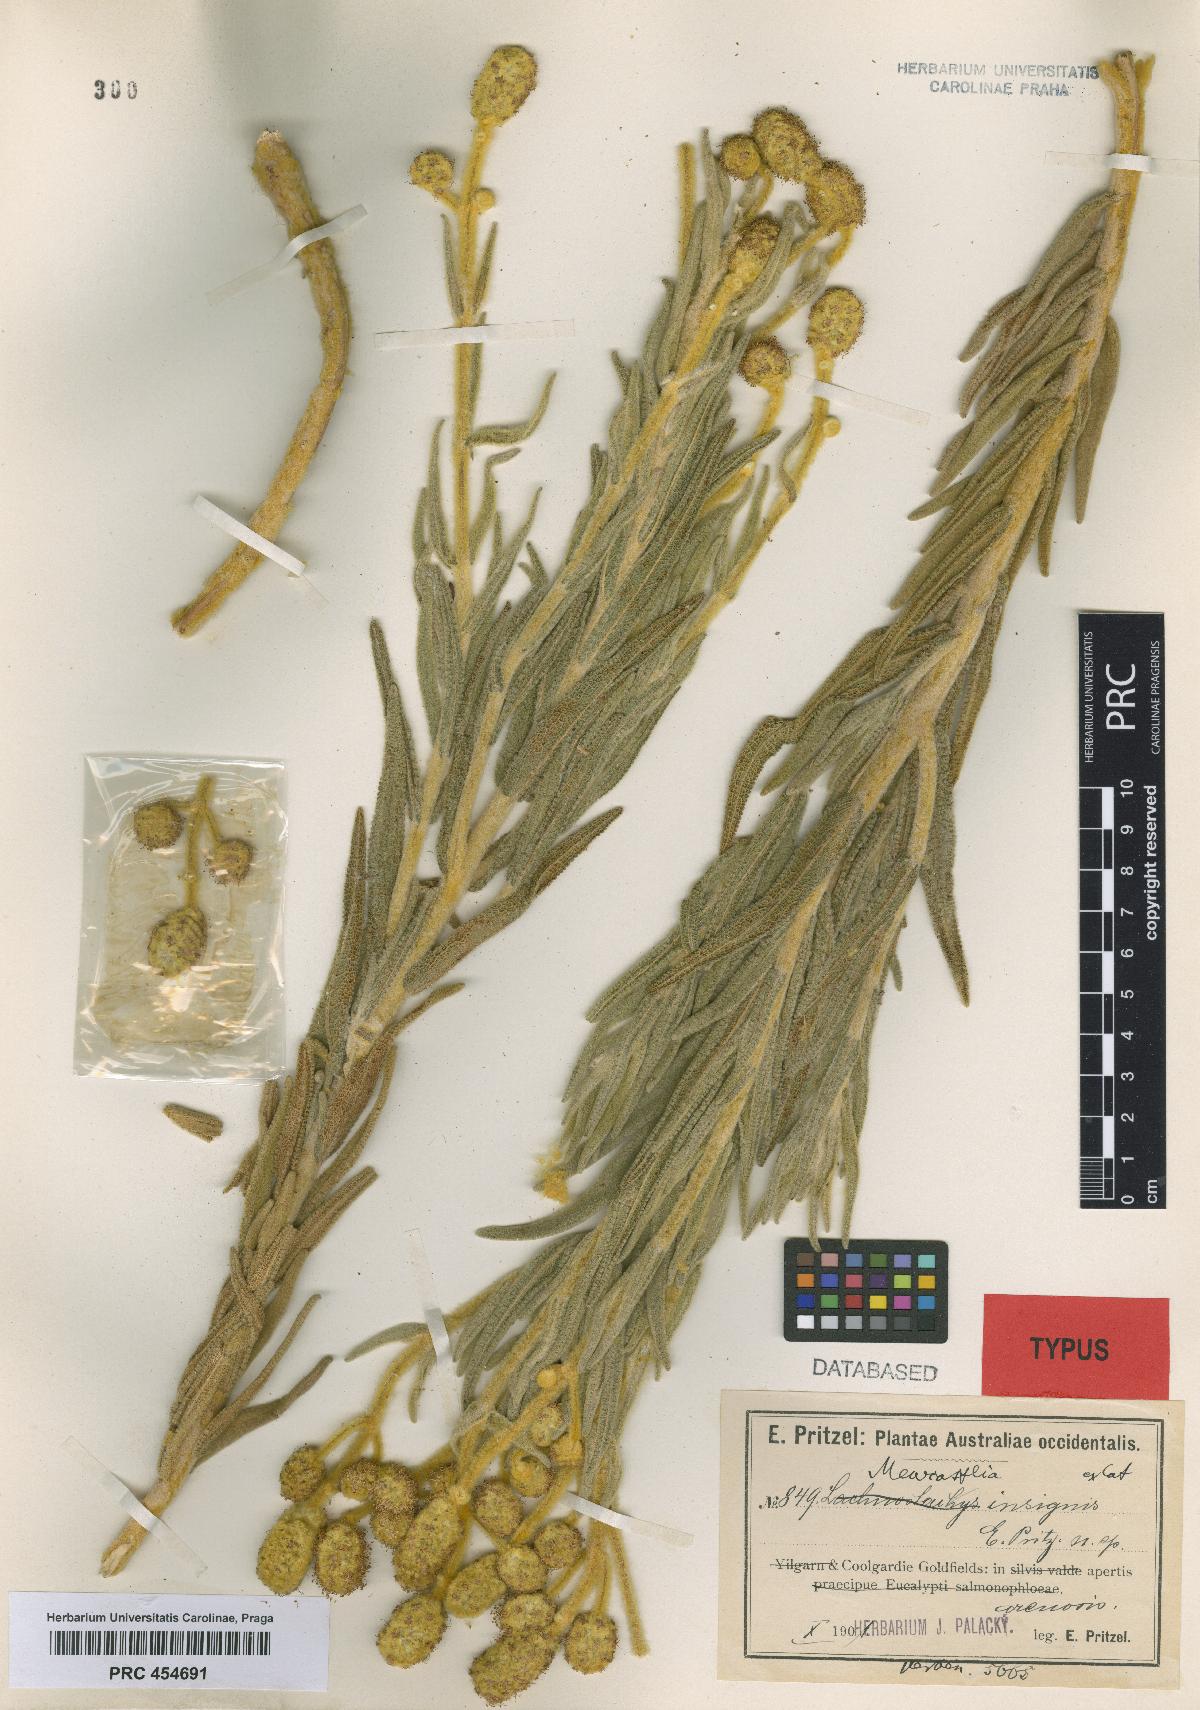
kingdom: Plantae
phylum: Tracheophyta
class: Magnoliopsida
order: Lamiales
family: Lamiaceae
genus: Apatelantha
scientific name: Apatelantha insignis
